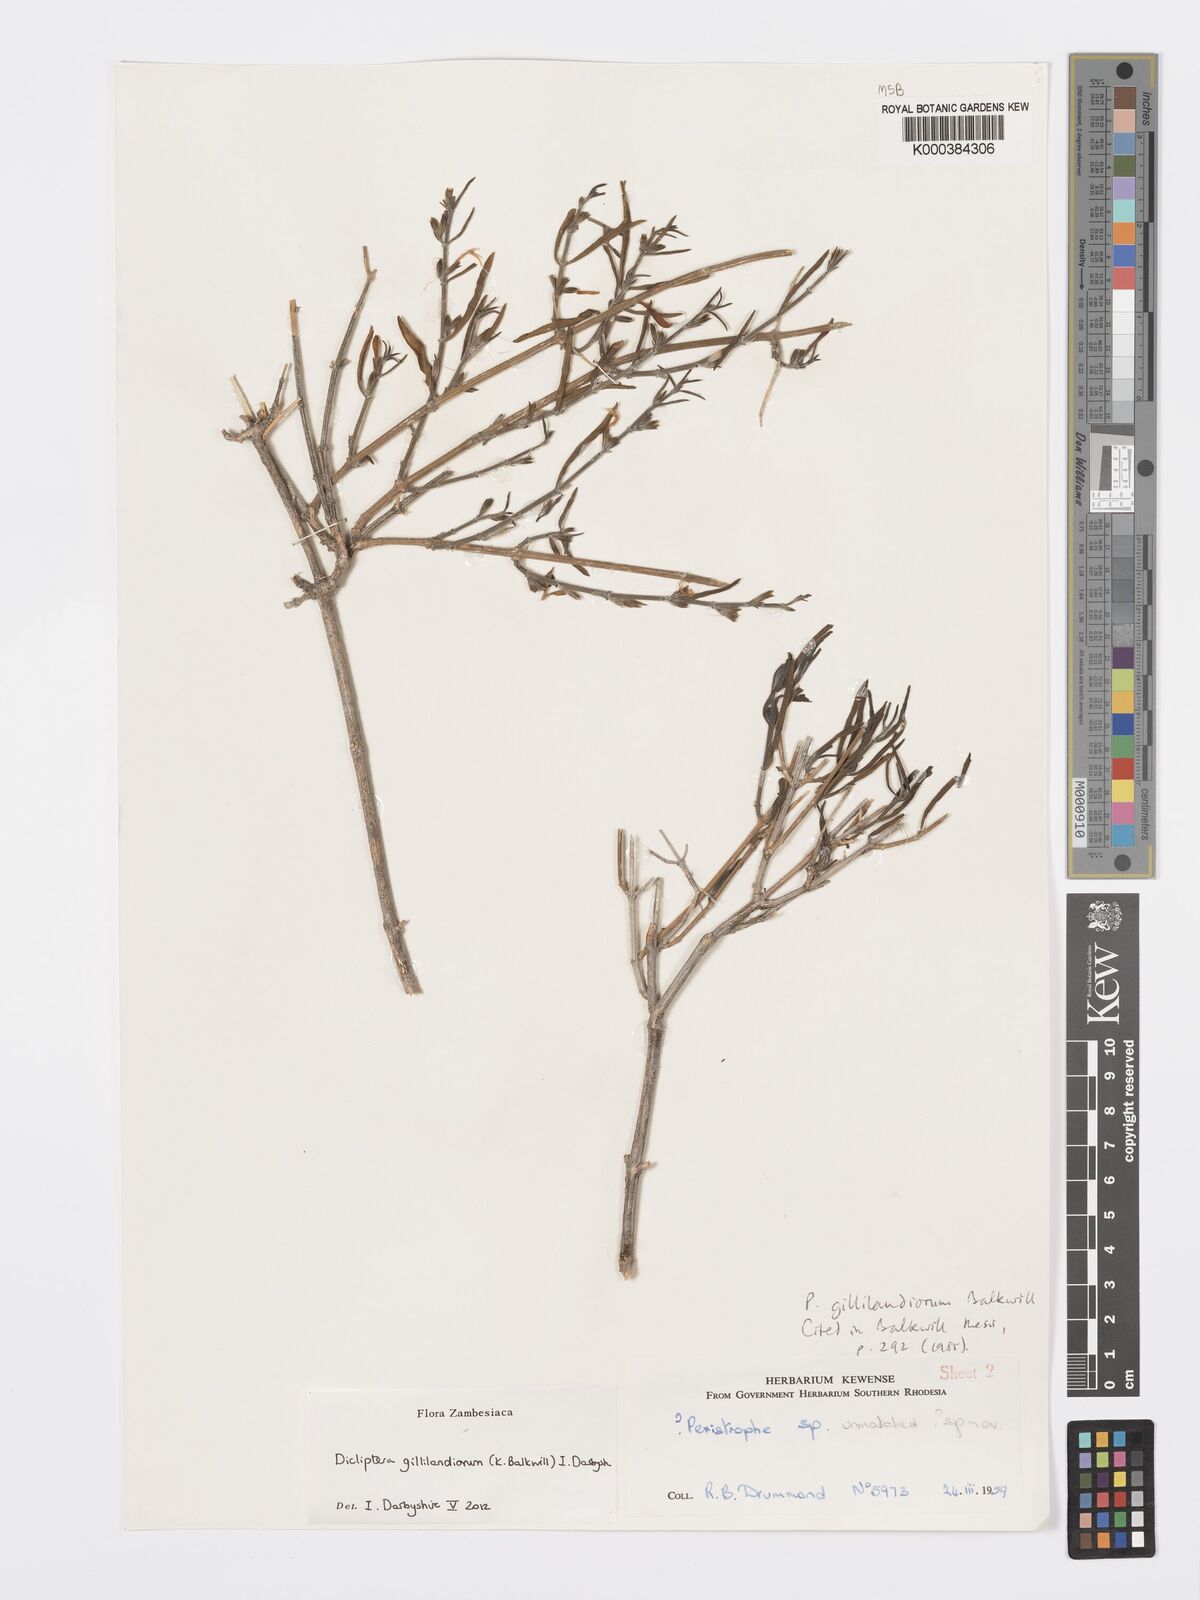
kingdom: Plantae
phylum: Tracheophyta
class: Magnoliopsida
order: Lamiales
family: Acanthaceae
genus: Dicliptera
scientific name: Dicliptera gillilandiorum
